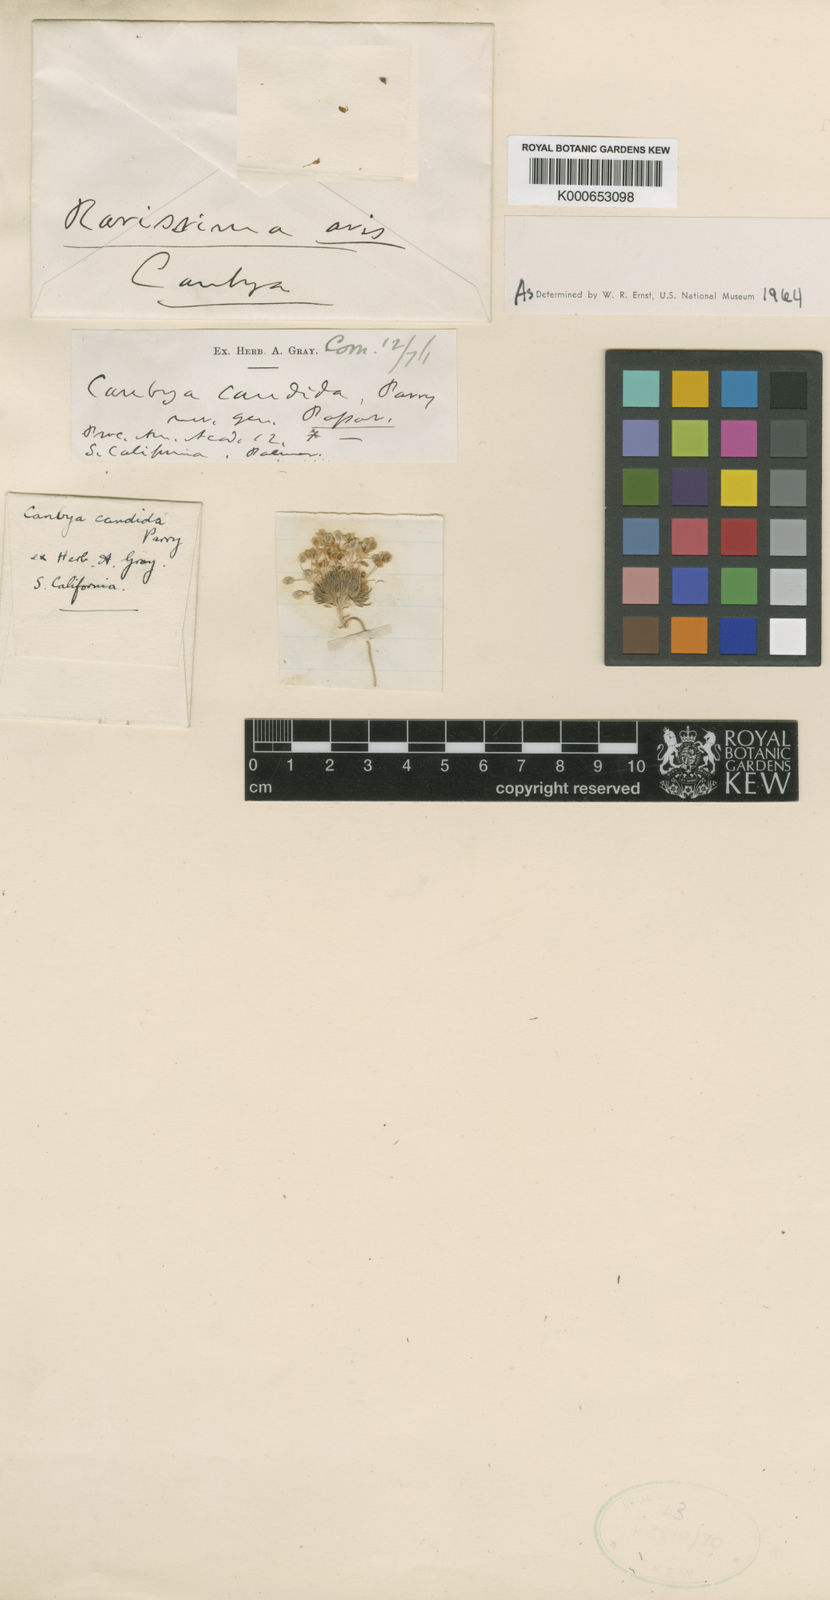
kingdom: Plantae
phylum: Tracheophyta
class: Magnoliopsida
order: Ranunculales
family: Papaveraceae
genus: Canbya
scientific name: Canbya candida
